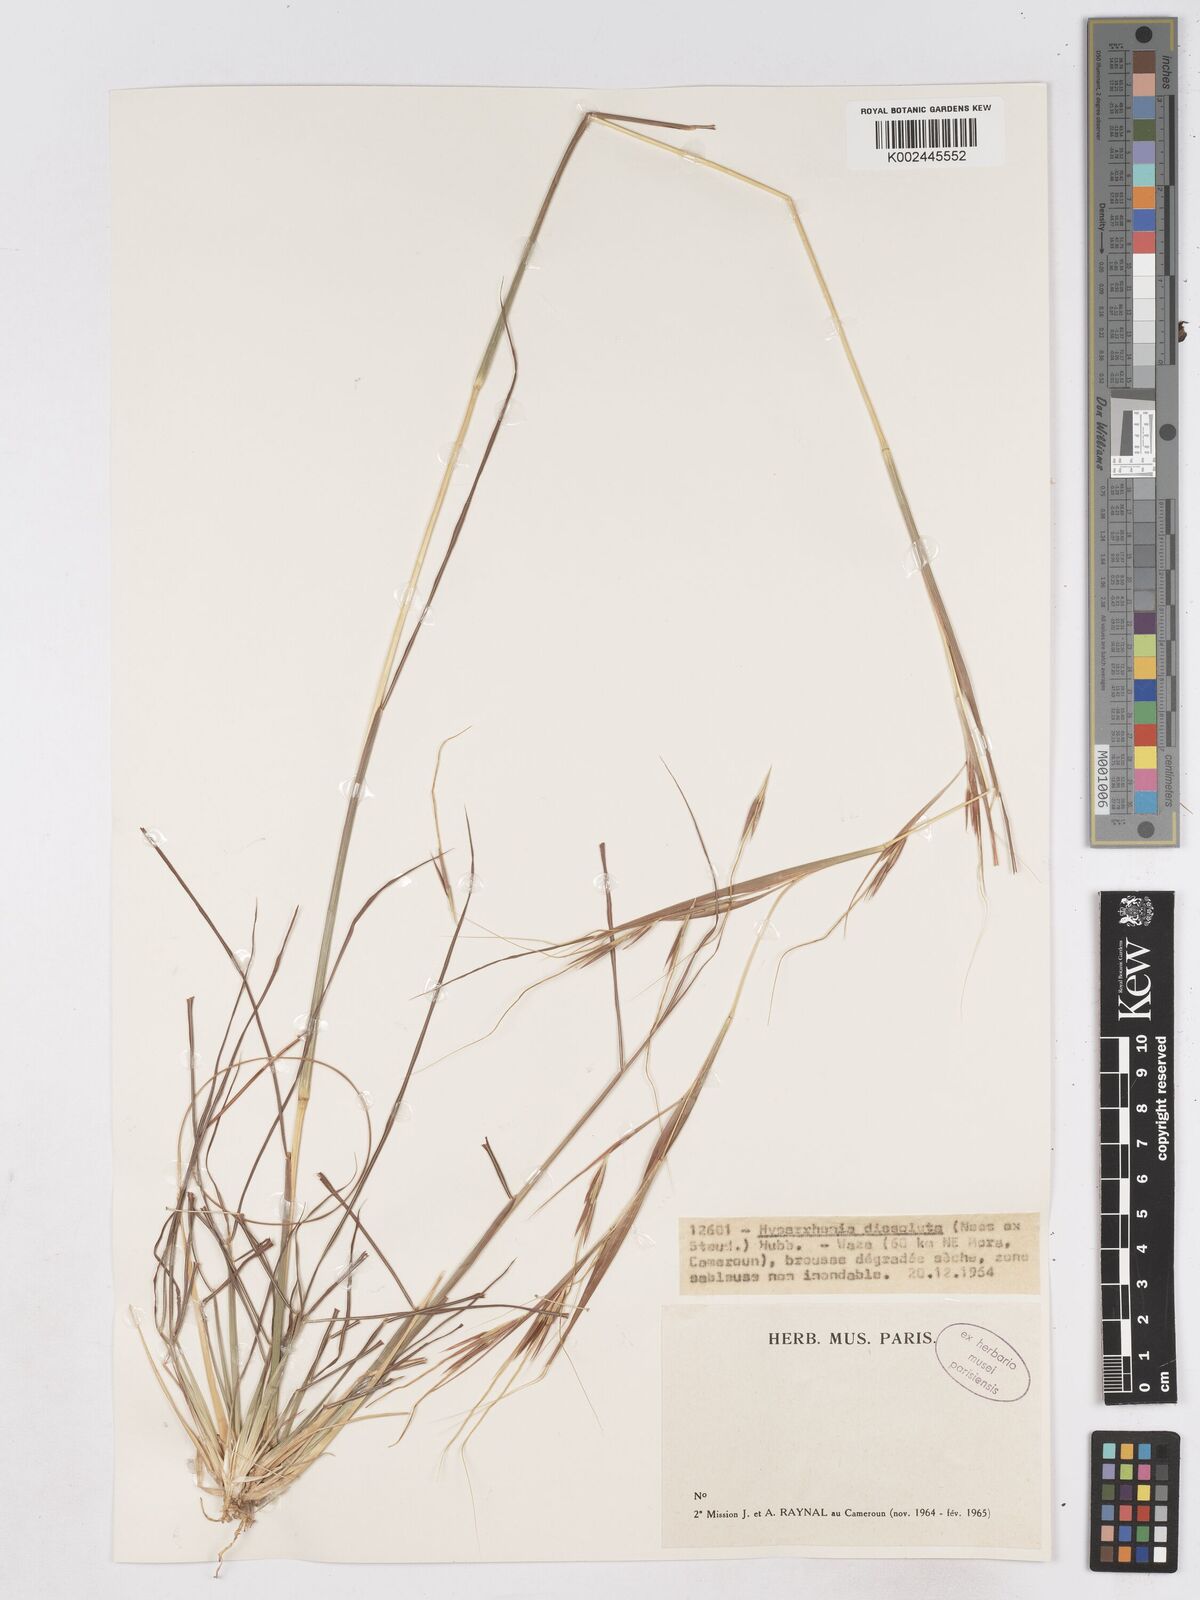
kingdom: Plantae
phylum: Tracheophyta
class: Liliopsida
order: Poales
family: Poaceae
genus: Hyperthelia
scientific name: Hyperthelia dissoluta
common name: Yellow thatching grass
